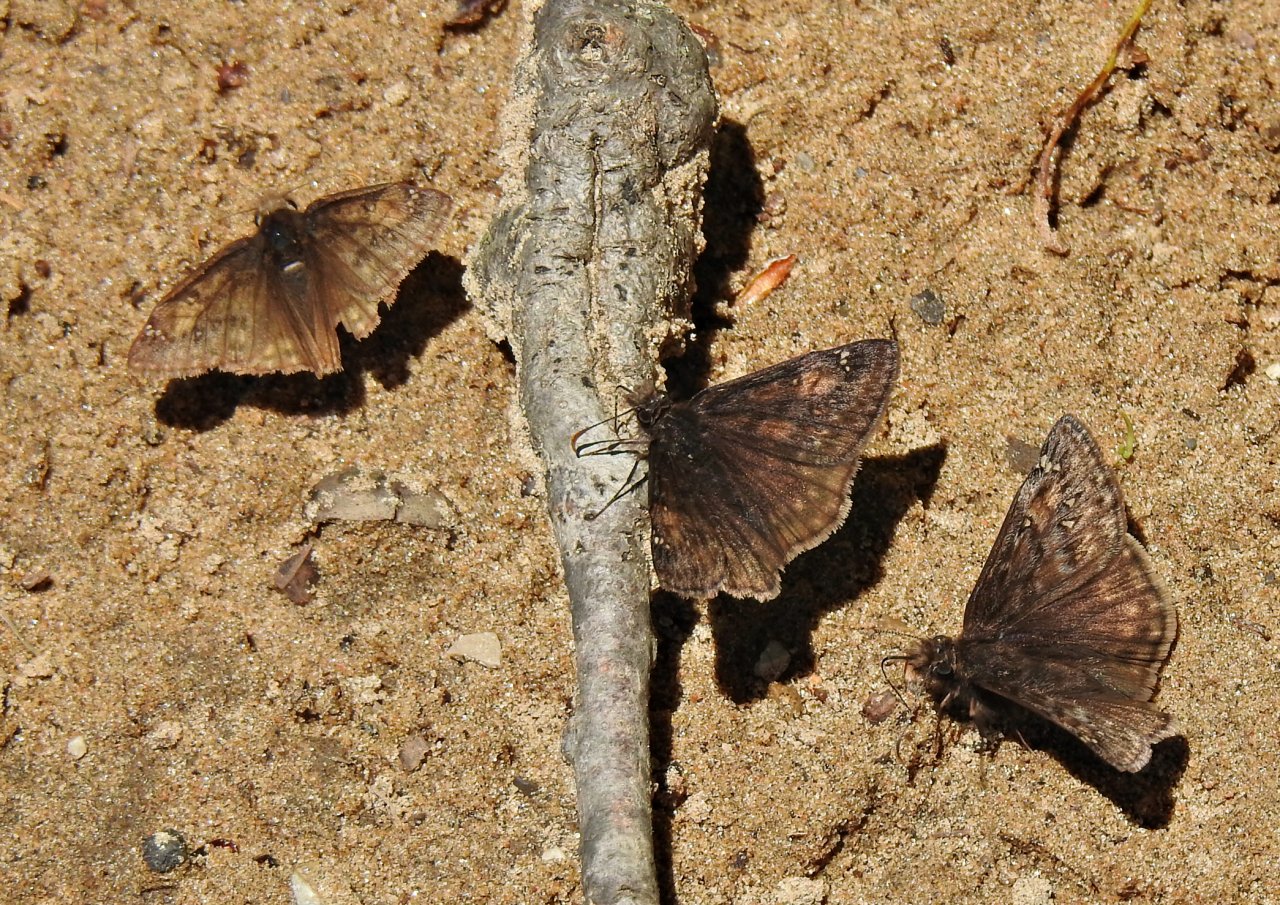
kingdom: Animalia
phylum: Arthropoda
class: Insecta
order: Lepidoptera
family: Hesperiidae
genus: Gesta
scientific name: Gesta
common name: Juvenal's Duskywing
